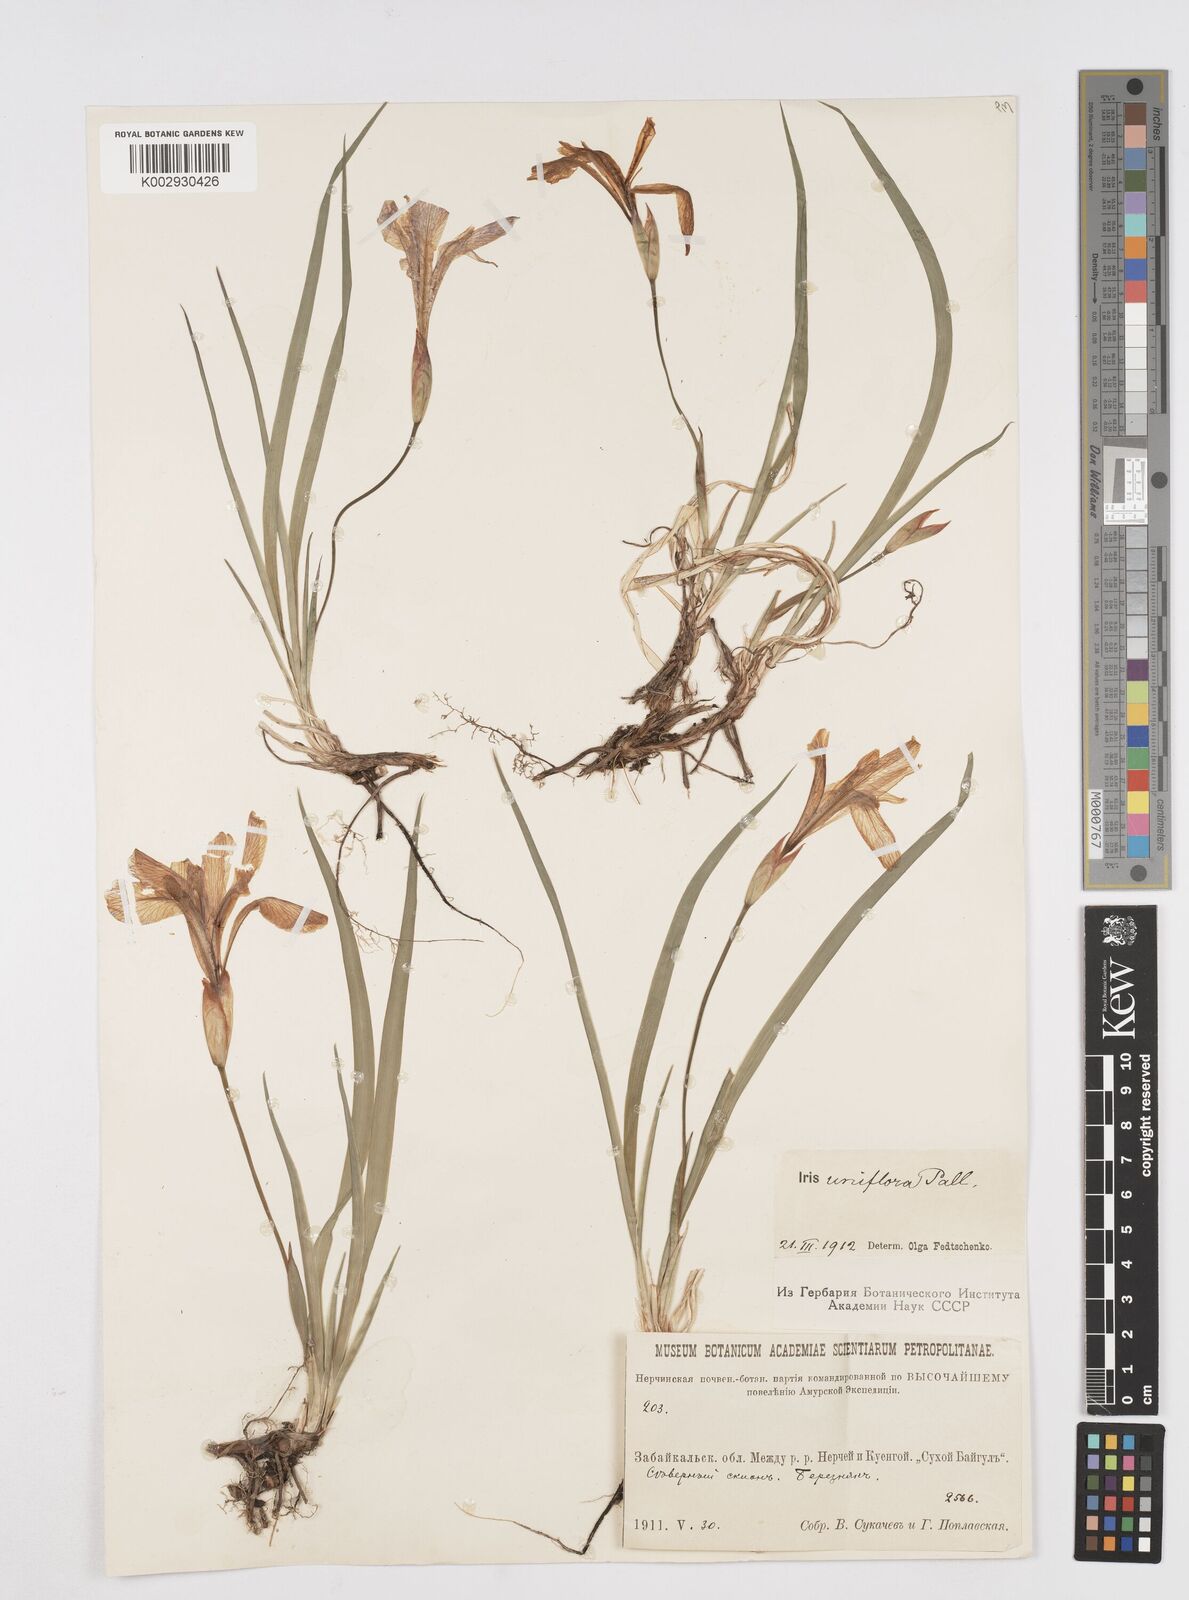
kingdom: Plantae
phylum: Tracheophyta
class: Liliopsida
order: Asparagales
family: Iridaceae
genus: Iris
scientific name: Iris uniflora
